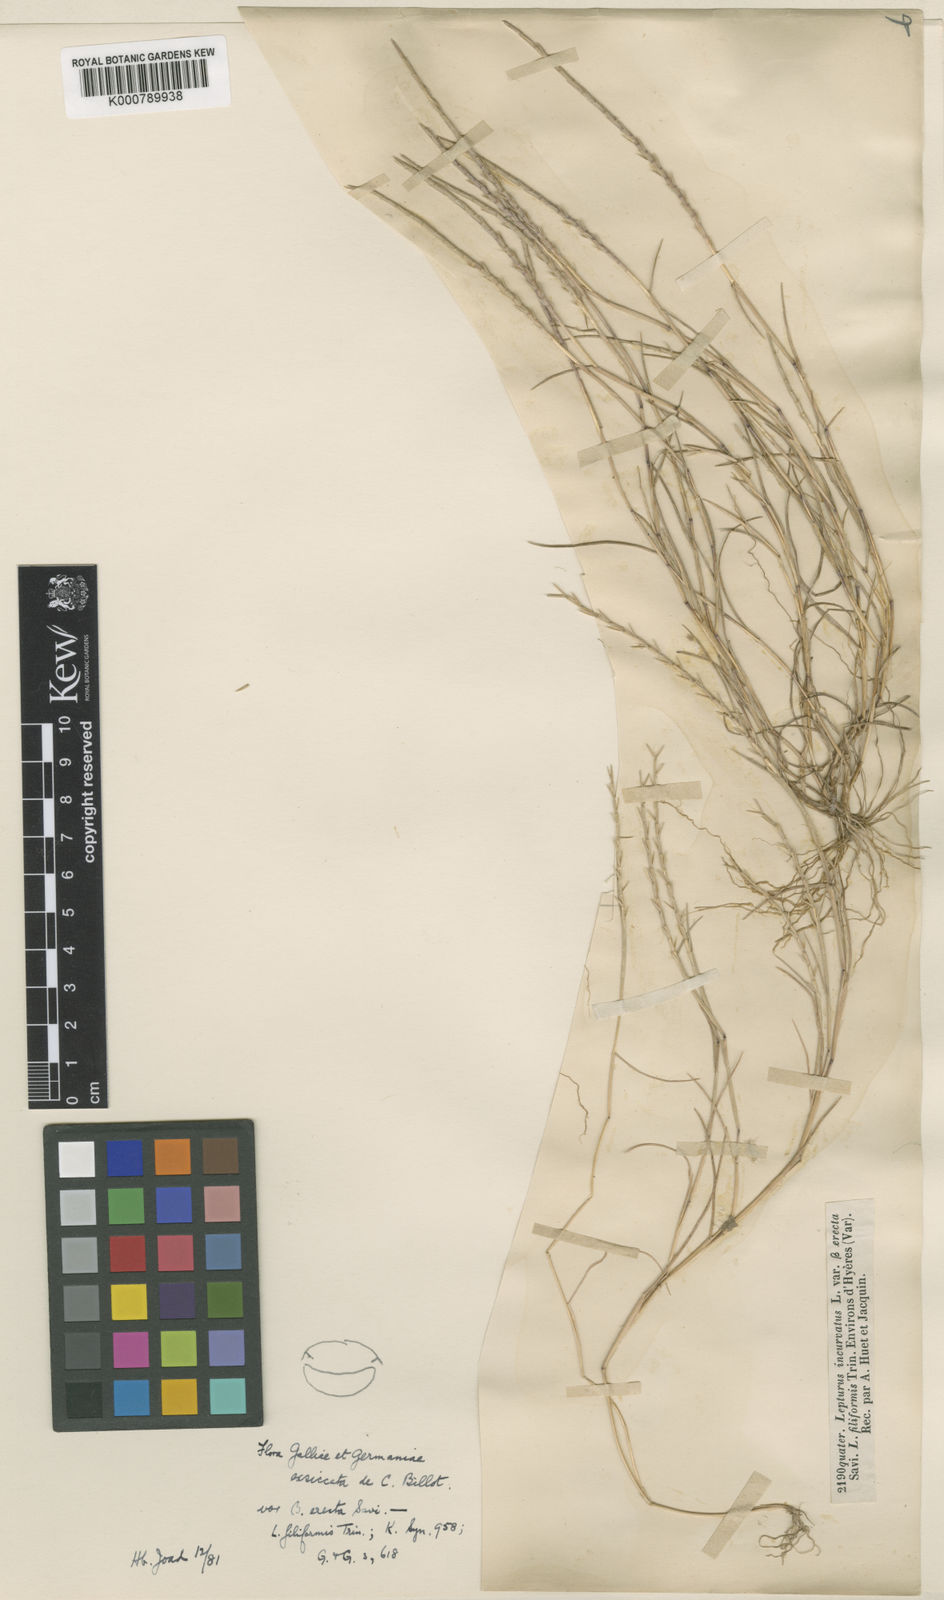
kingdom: Plantae
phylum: Tracheophyta
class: Liliopsida
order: Poales
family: Poaceae
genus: Parapholis
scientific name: Parapholis filiformis
